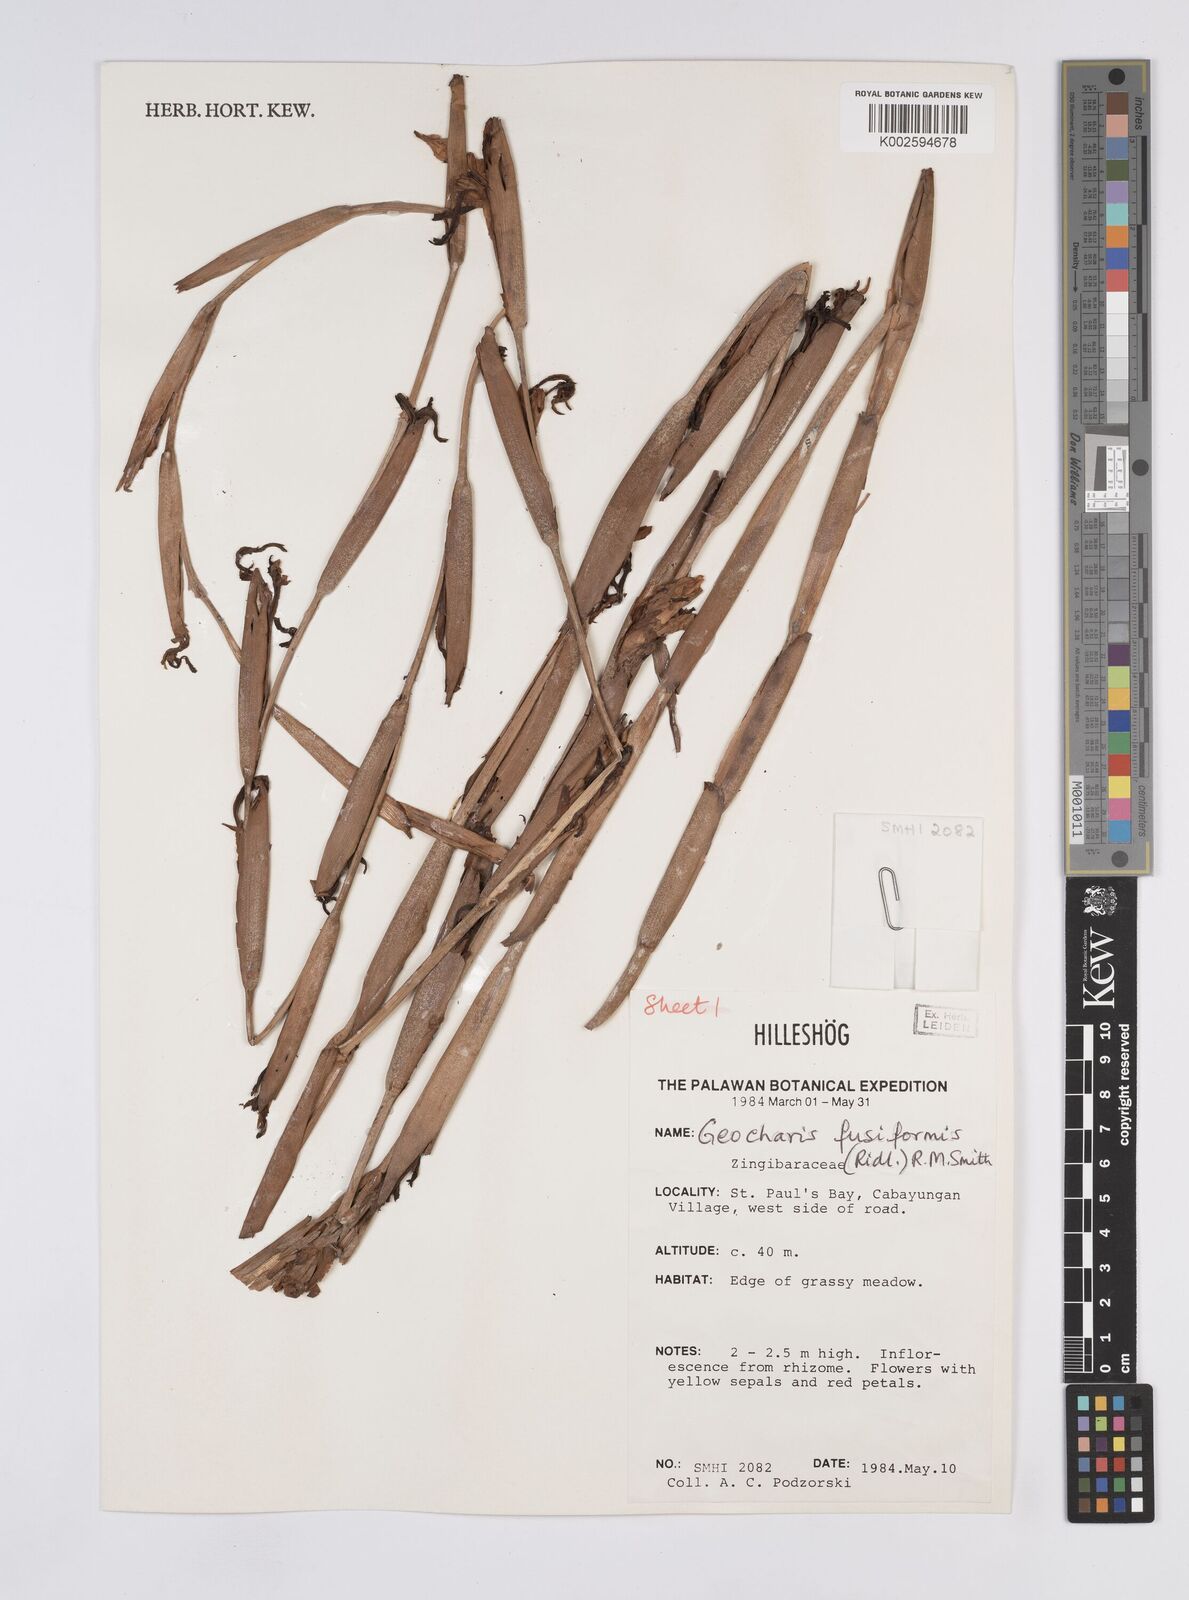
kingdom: Plantae
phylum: Tracheophyta
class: Liliopsida
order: Zingiberales
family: Zingiberaceae
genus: Geocharis
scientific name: Geocharis fusiformis
